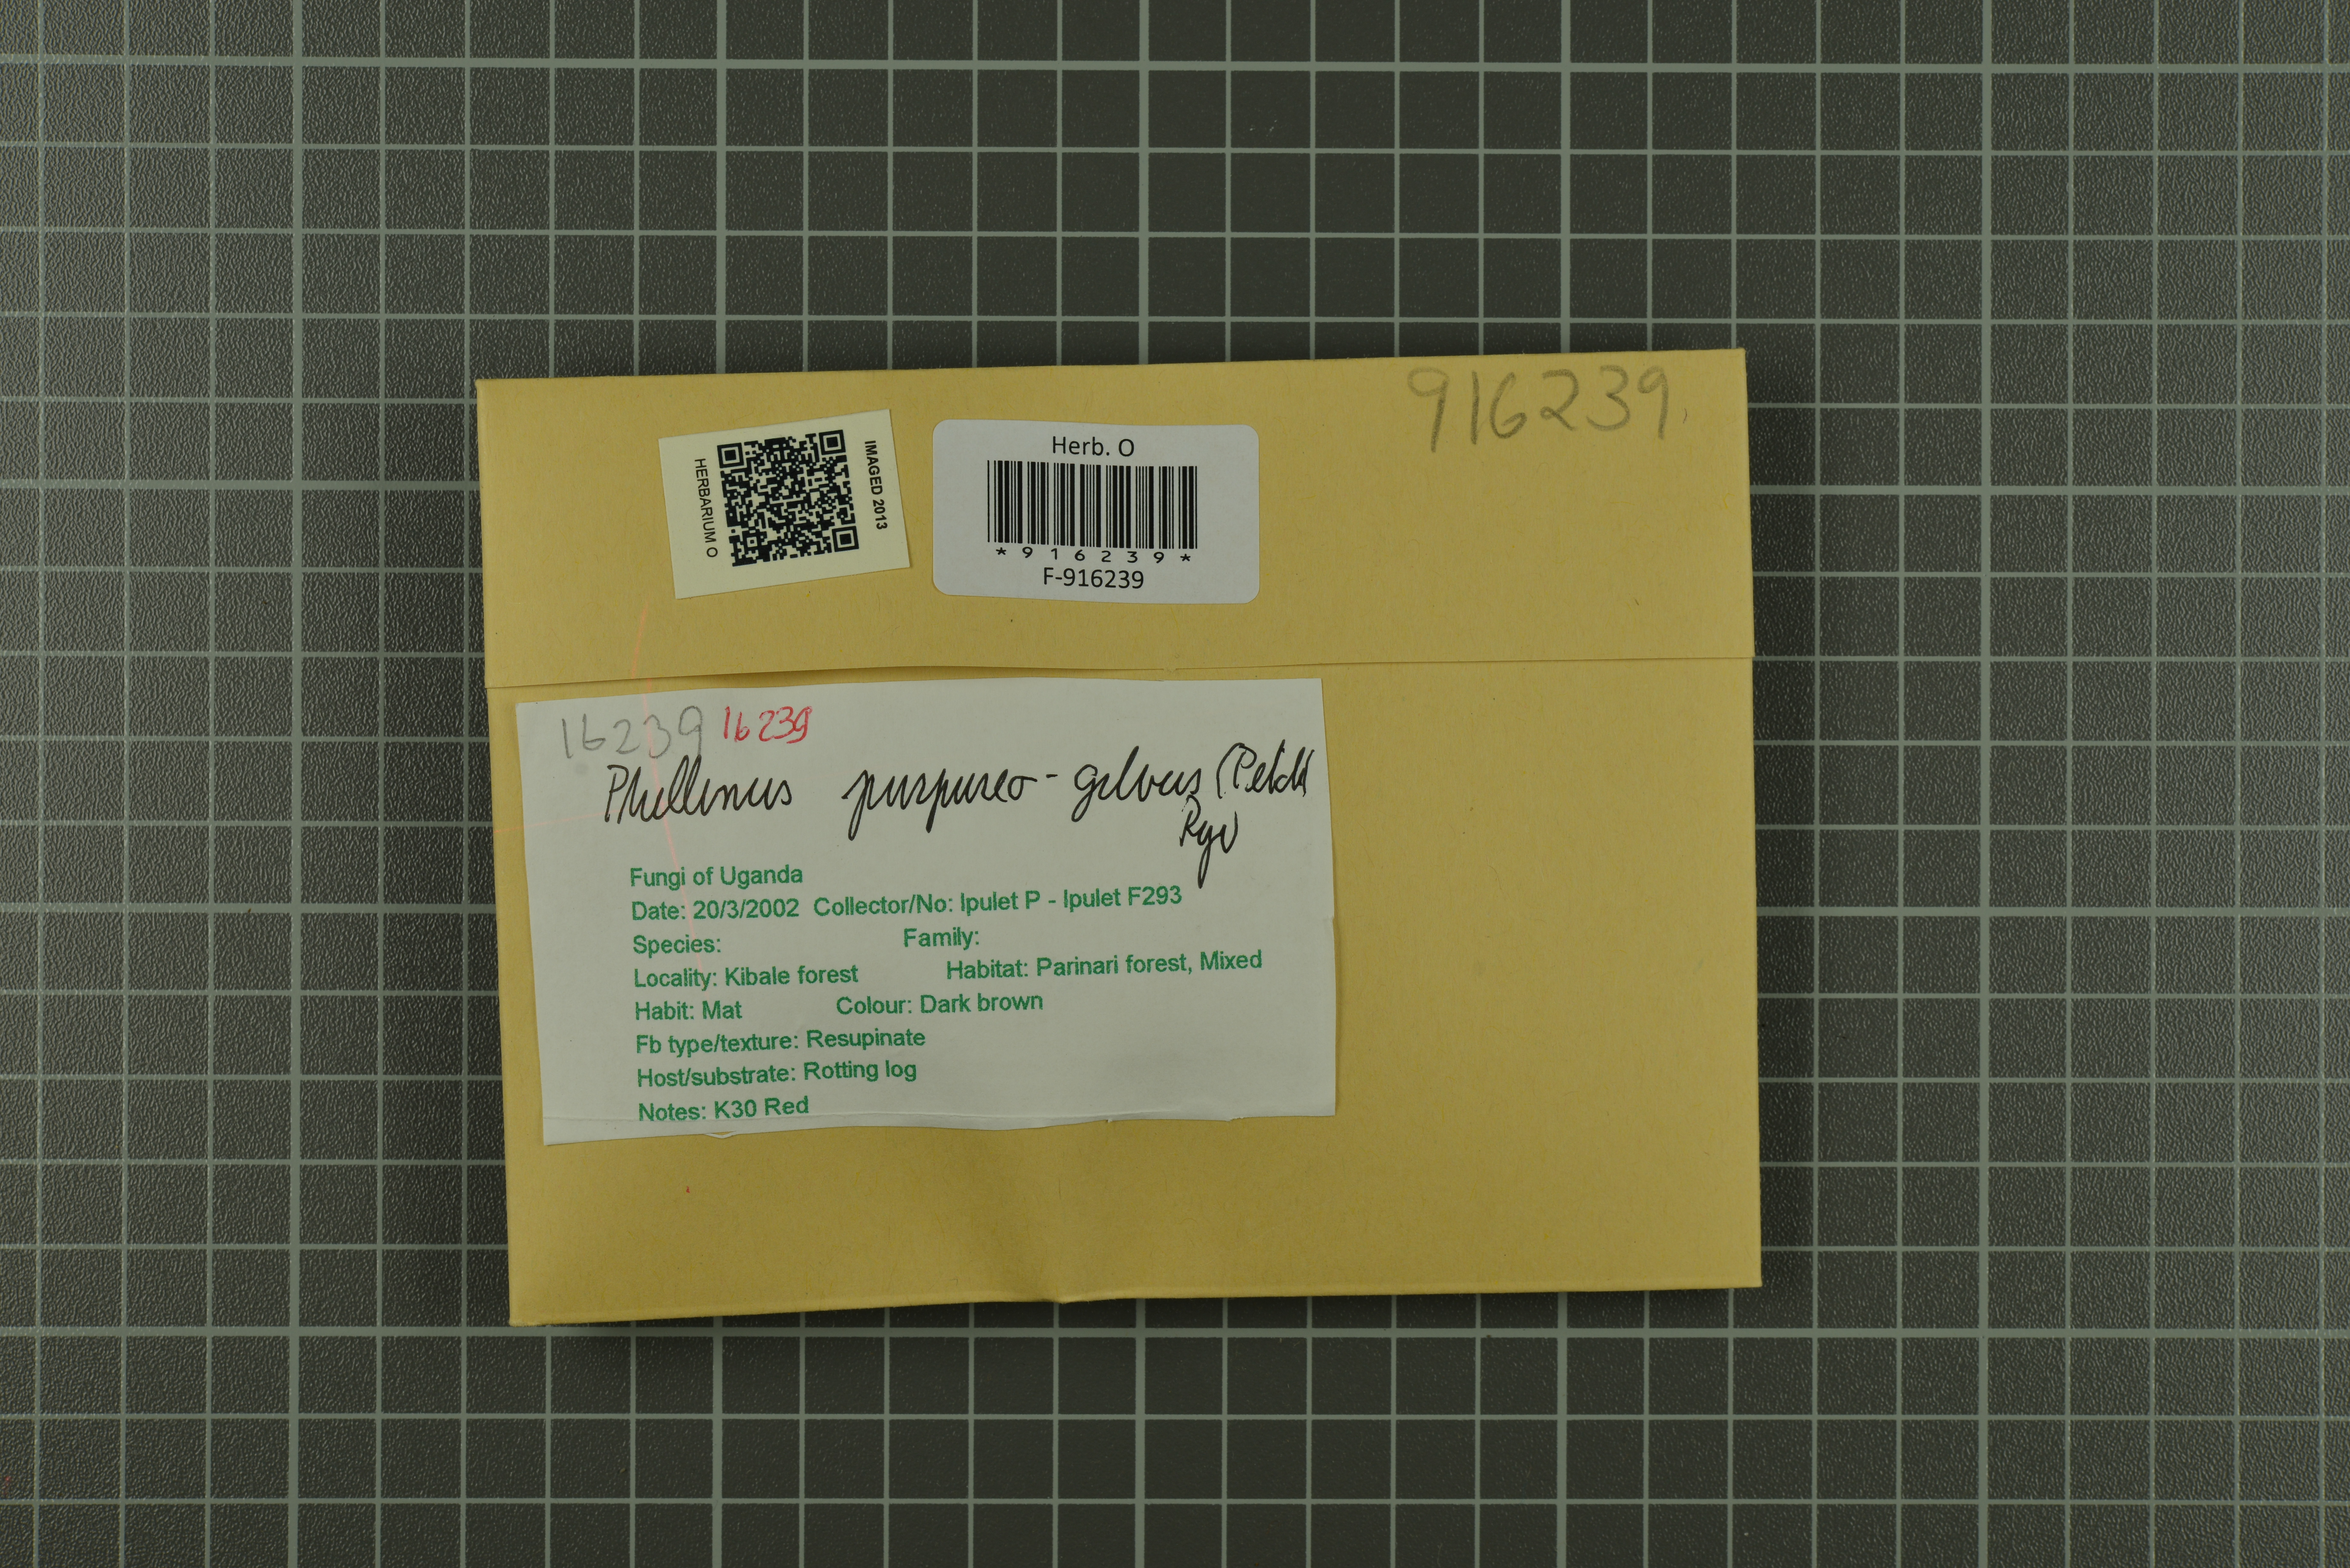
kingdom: Fungi
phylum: Basidiomycota
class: Agaricomycetes
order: Hymenochaetales
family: Hymenochaetaceae
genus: Tropicoporus
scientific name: Tropicoporus purpureogilvus
